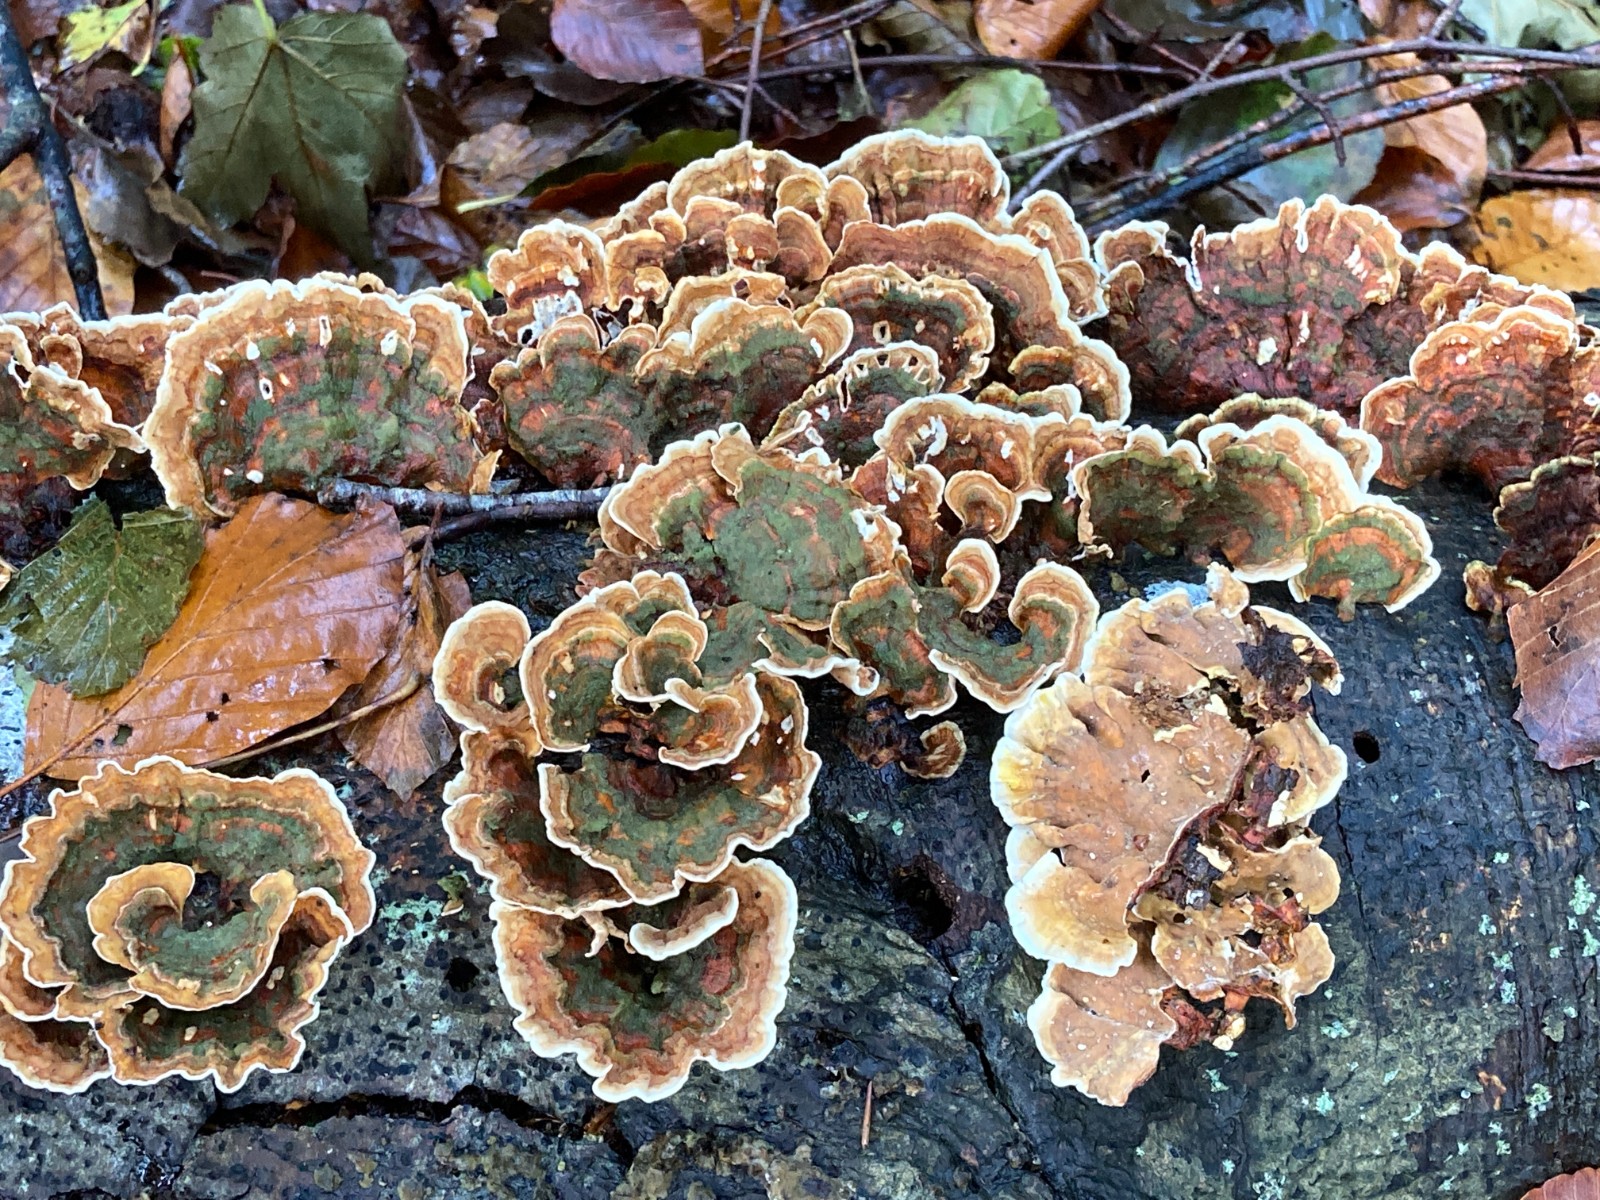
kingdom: Fungi
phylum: Basidiomycota
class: Agaricomycetes
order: Russulales
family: Stereaceae
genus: Stereum
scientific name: Stereum subtomentosum
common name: smuk lædersvamp
